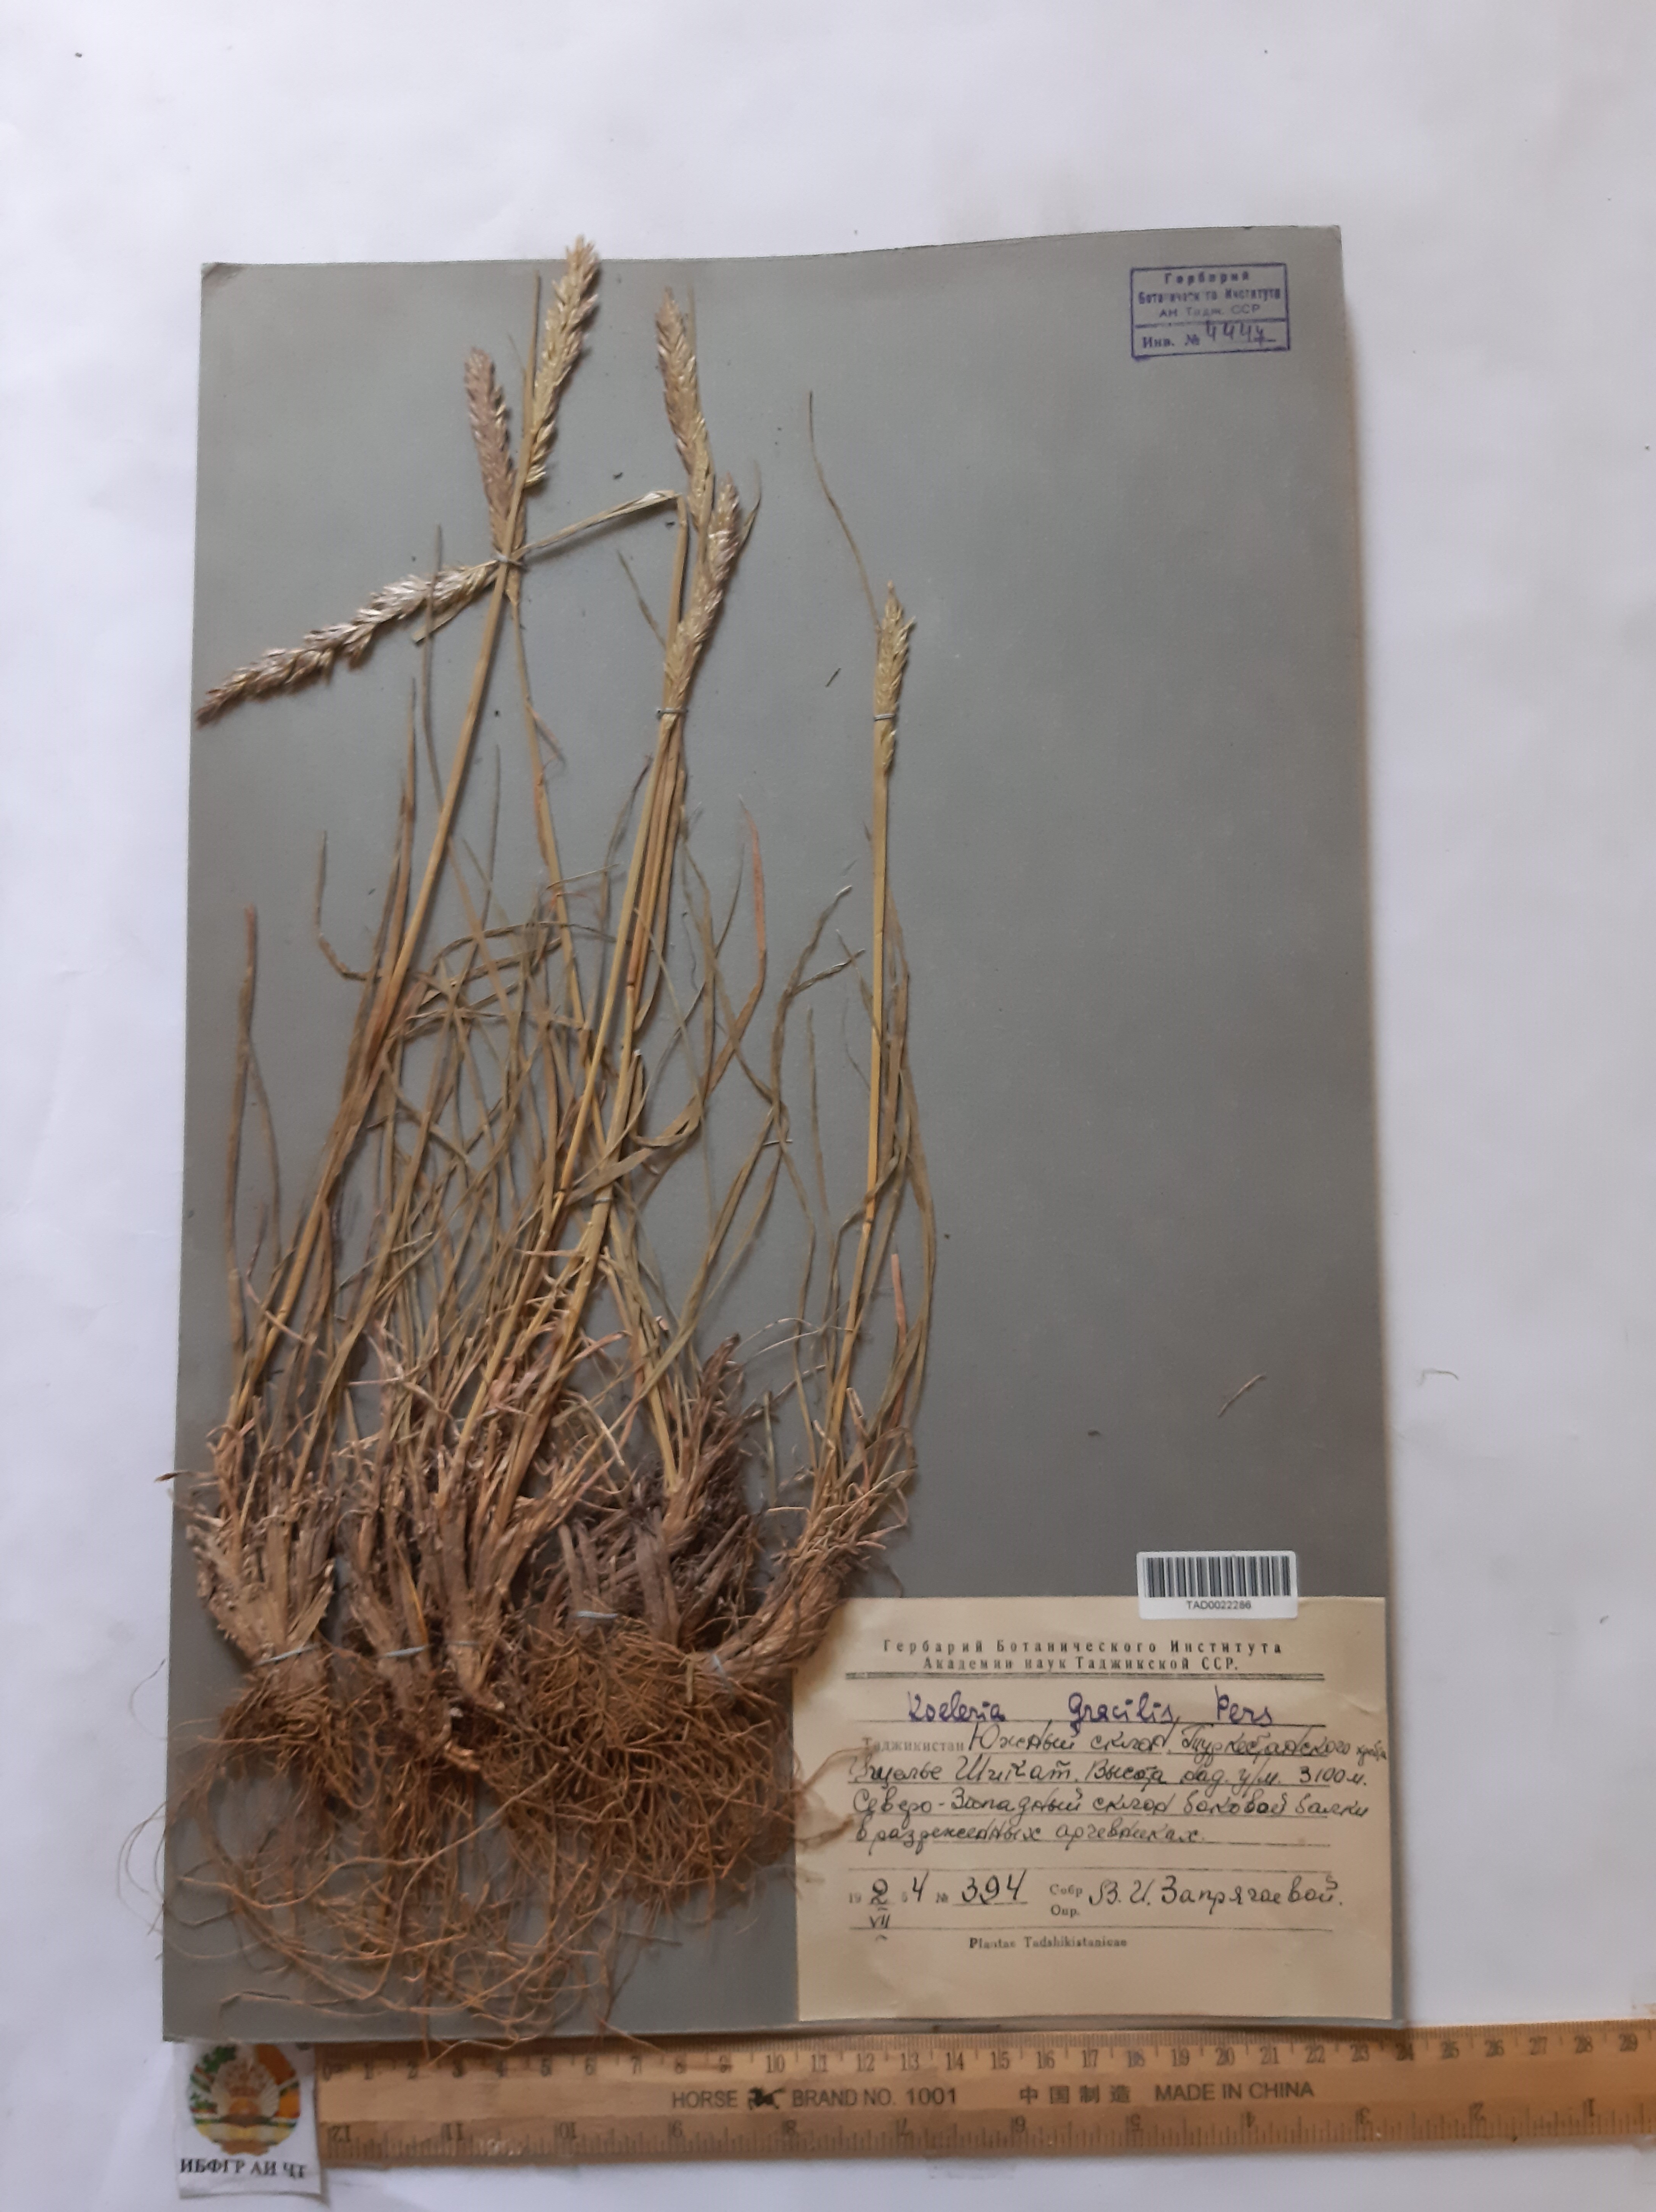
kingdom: Plantae
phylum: Tracheophyta
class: Liliopsida
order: Poales
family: Poaceae
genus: Koeleria
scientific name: Koeleria macrantha
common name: Crested hair-grass
